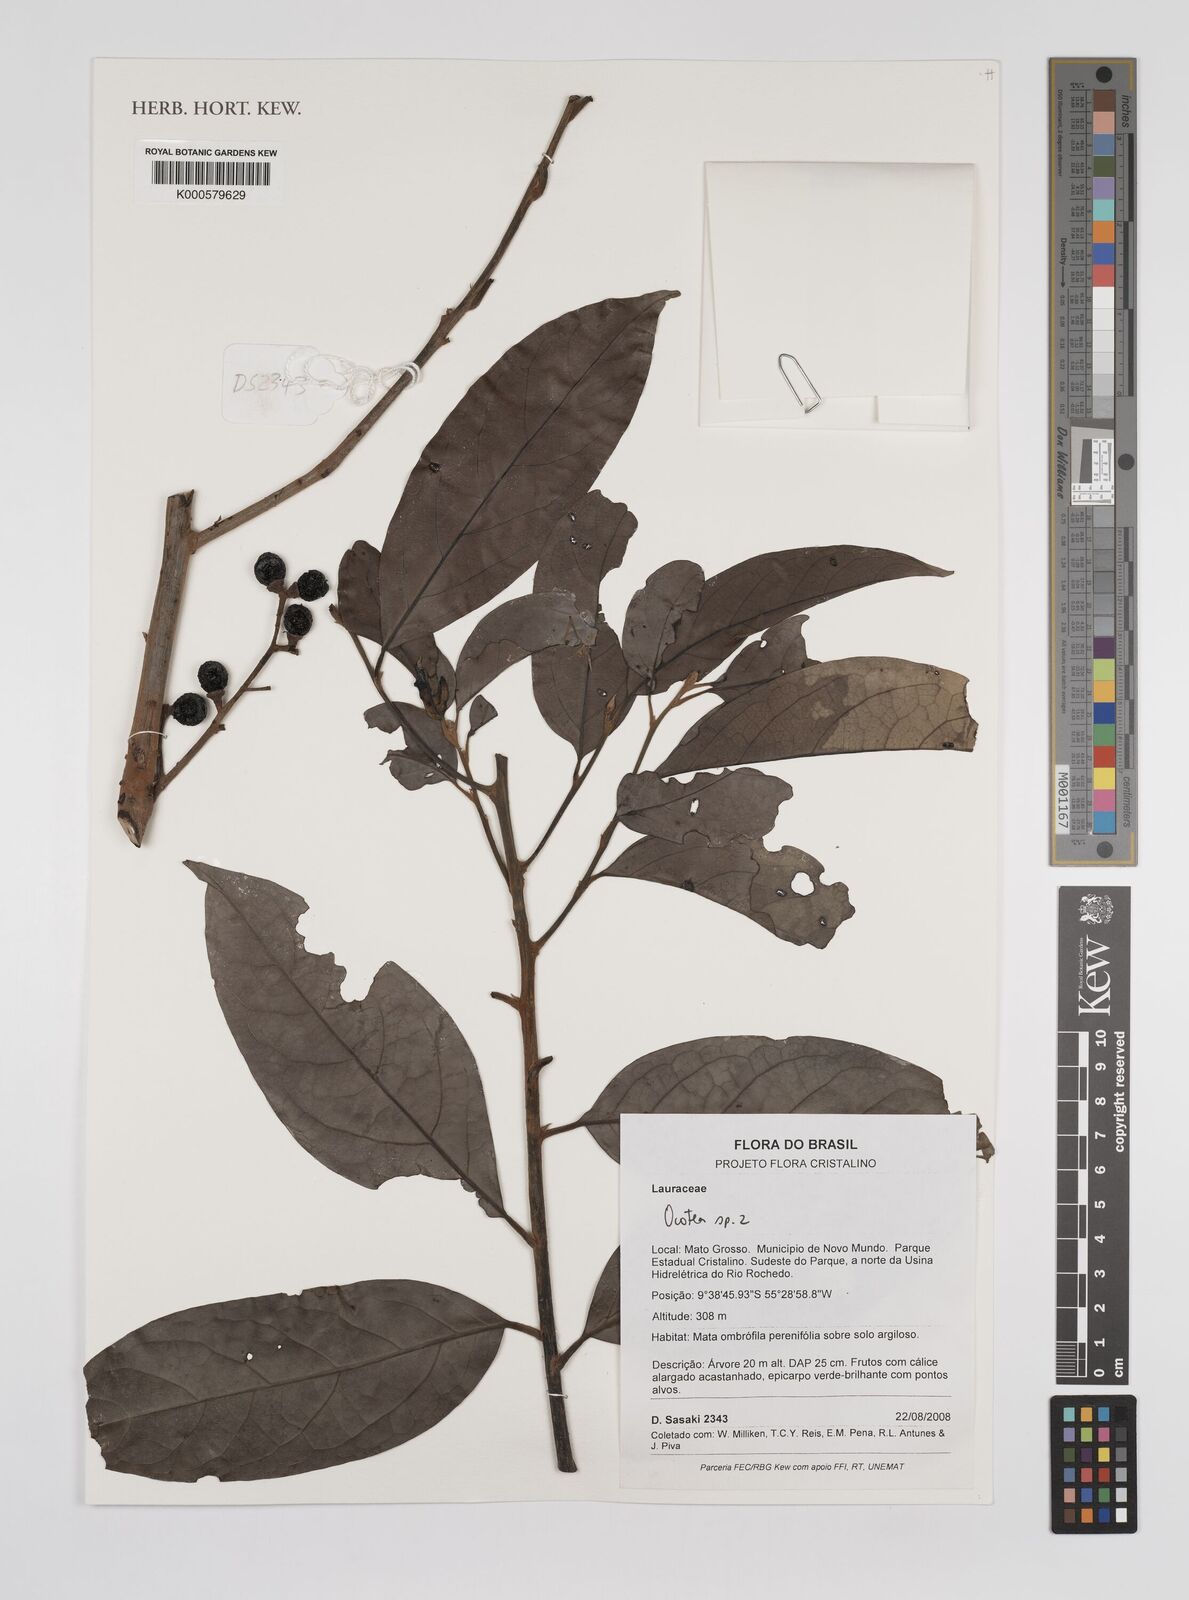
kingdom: Plantae
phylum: Tracheophyta
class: Magnoliopsida
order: Laurales
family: Lauraceae
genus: Ocotea
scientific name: Ocotea
